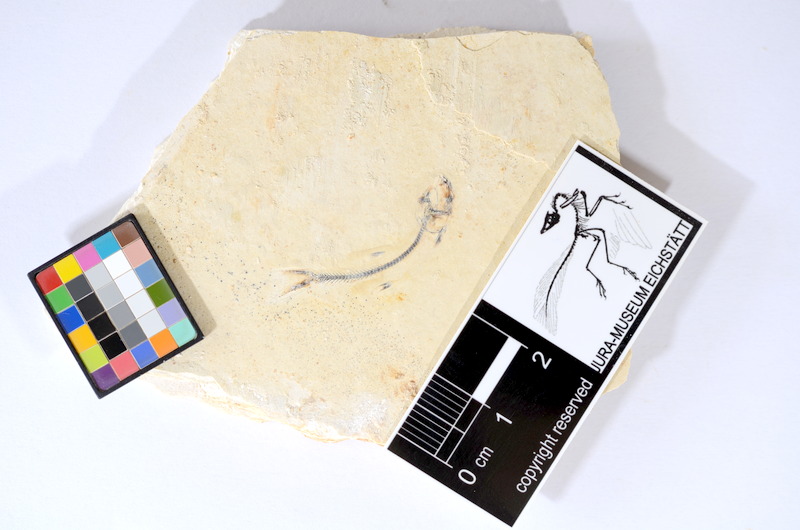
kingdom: Animalia
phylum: Chordata
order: Salmoniformes
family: Orthogonikleithridae
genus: Orthogonikleithrus
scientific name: Orthogonikleithrus hoelli
